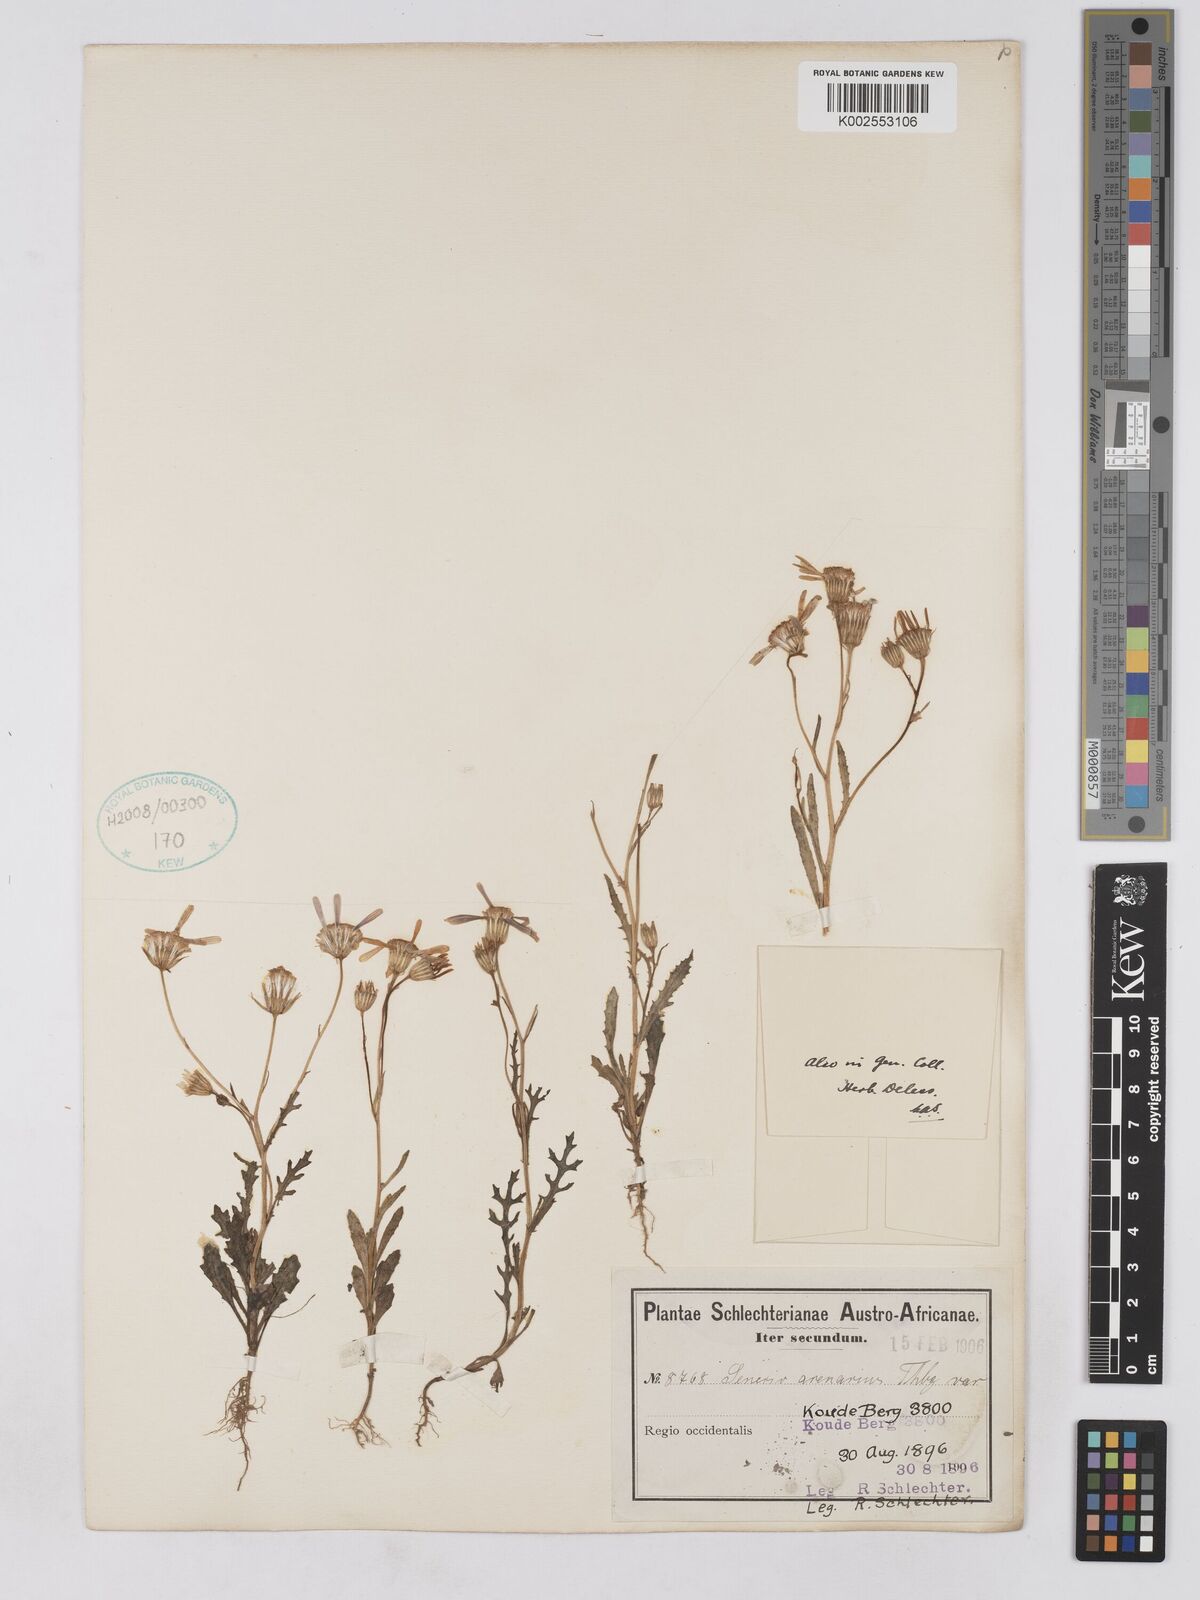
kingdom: Plantae
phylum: Tracheophyta
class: Magnoliopsida
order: Asterales
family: Asteraceae
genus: Senecio
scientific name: Senecio arenarius
